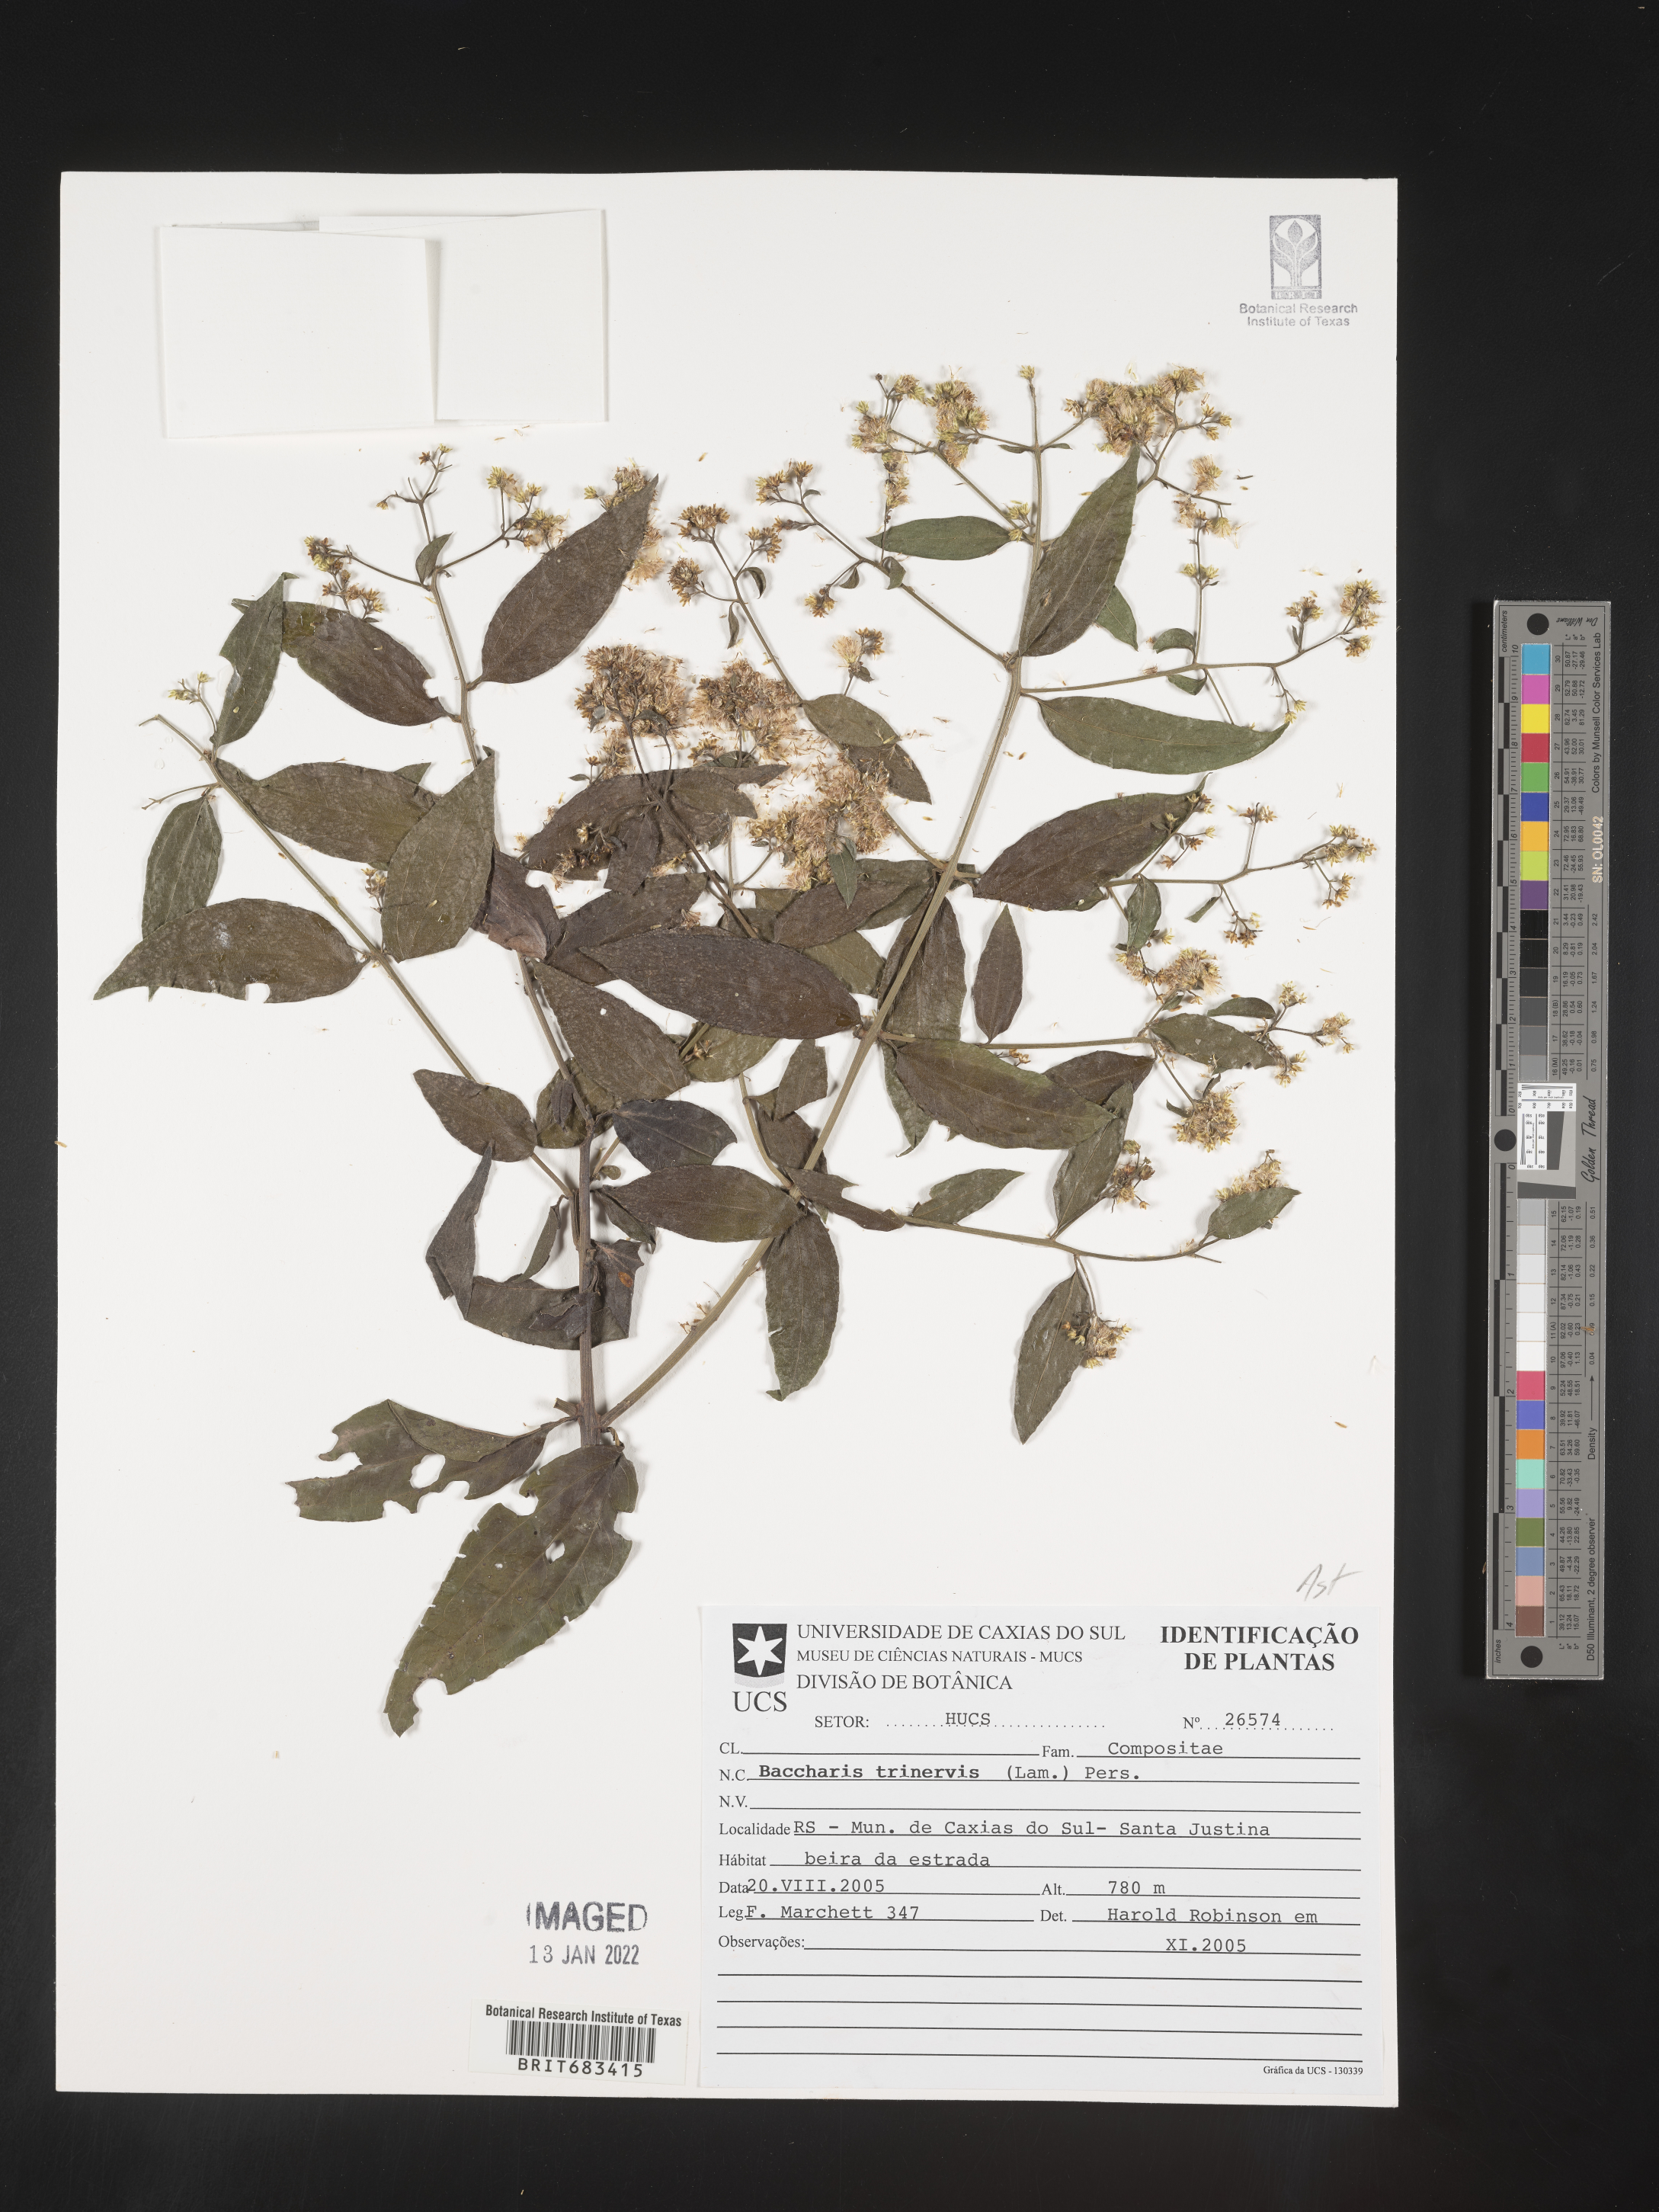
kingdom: Plantae
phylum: Tracheophyta
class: Magnoliopsida
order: Asterales
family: Asteraceae
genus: Baccharis
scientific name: Baccharis trinervis
